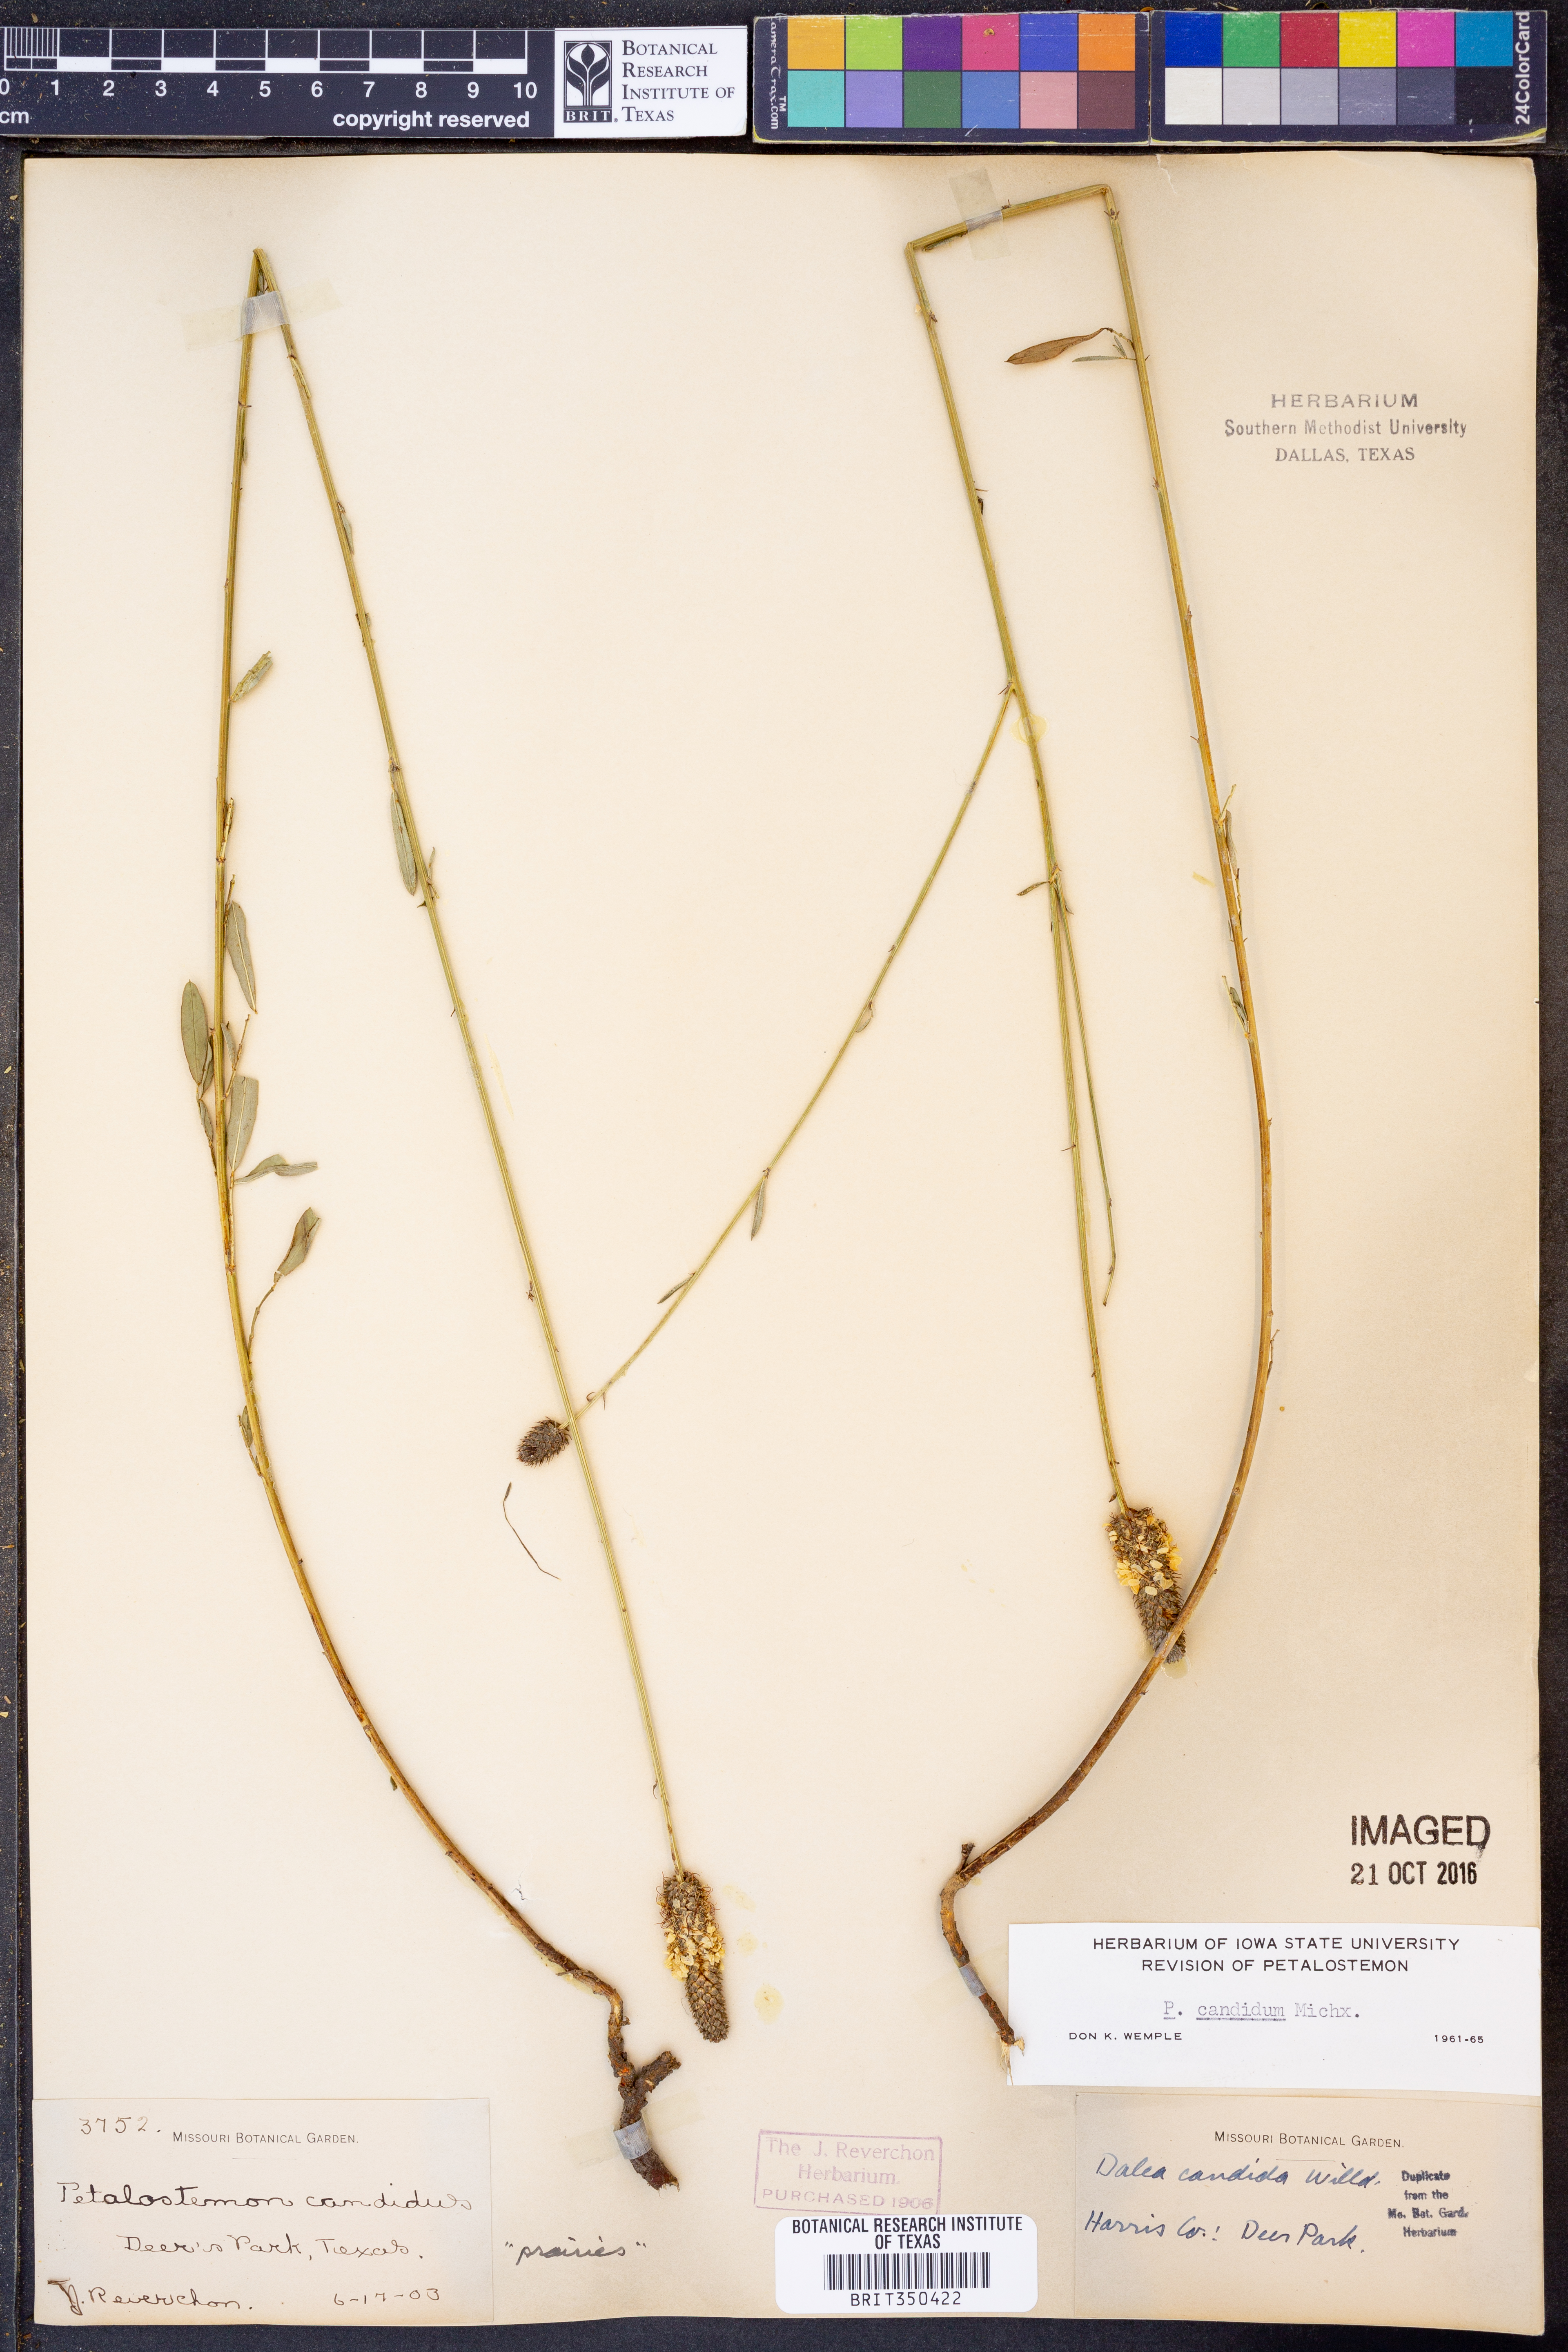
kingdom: Plantae
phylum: Tracheophyta
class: Magnoliopsida
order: Fabales
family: Fabaceae
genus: Dalea
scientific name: Dalea candida
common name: White prairie-clover
